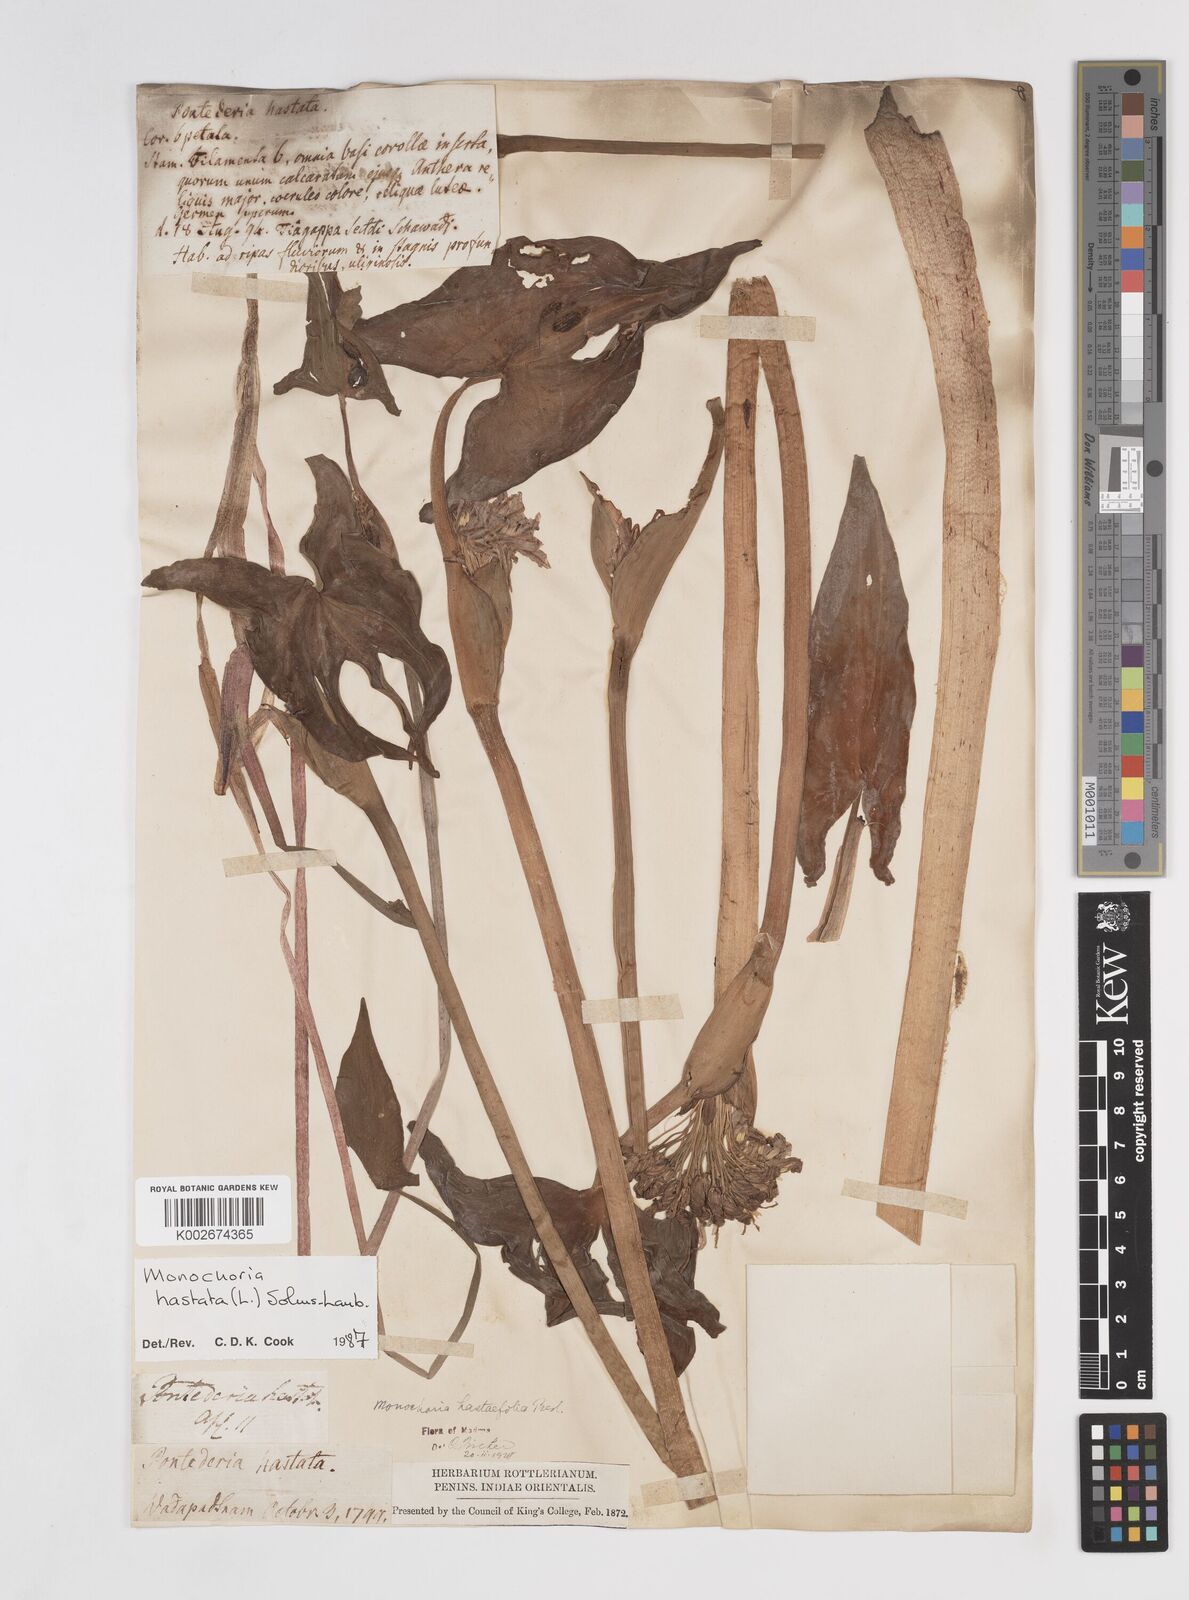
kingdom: Plantae
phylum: Tracheophyta
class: Liliopsida
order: Commelinales
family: Pontederiaceae
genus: Pontederia
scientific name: Pontederia hastata
